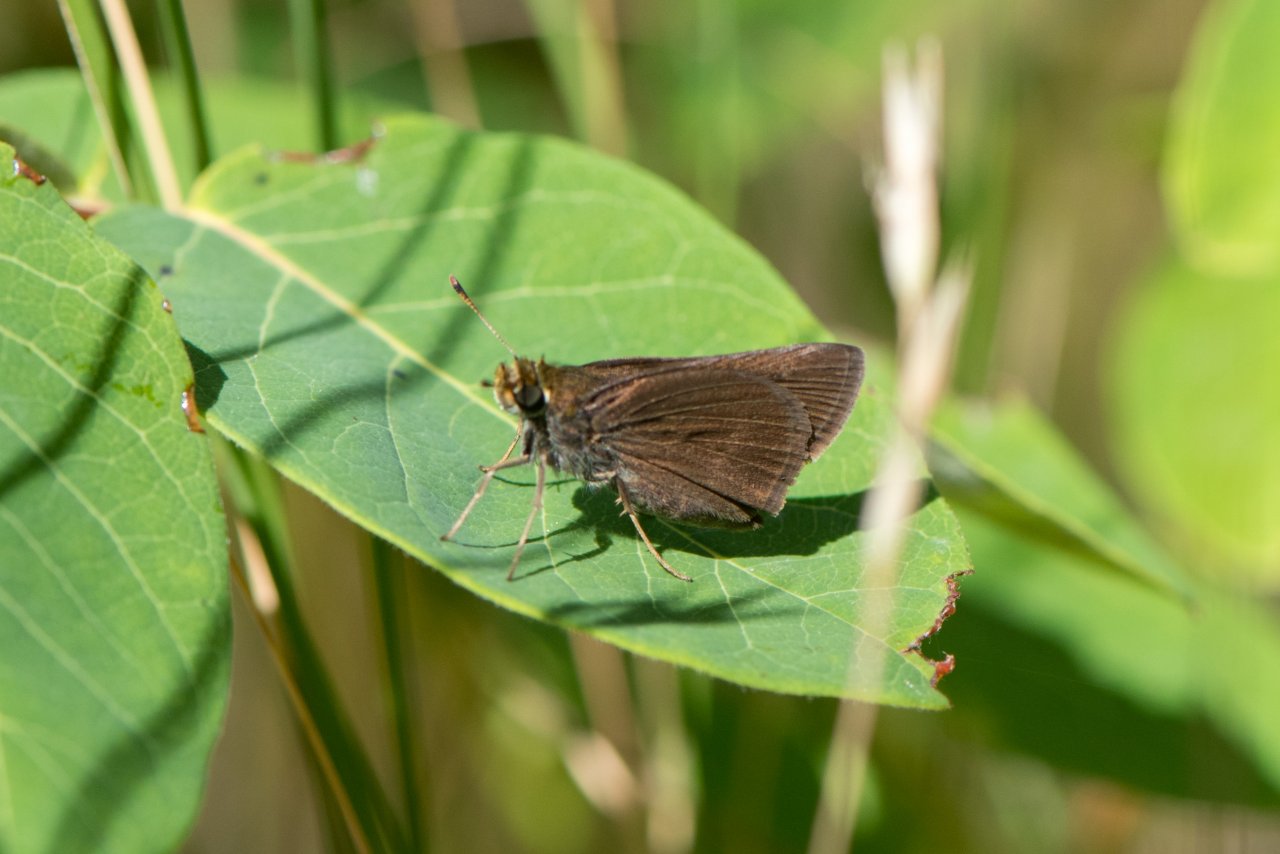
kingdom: Animalia
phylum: Arthropoda
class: Insecta
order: Lepidoptera
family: Hesperiidae
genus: Euphyes
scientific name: Euphyes vestris
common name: Dun Skipper
